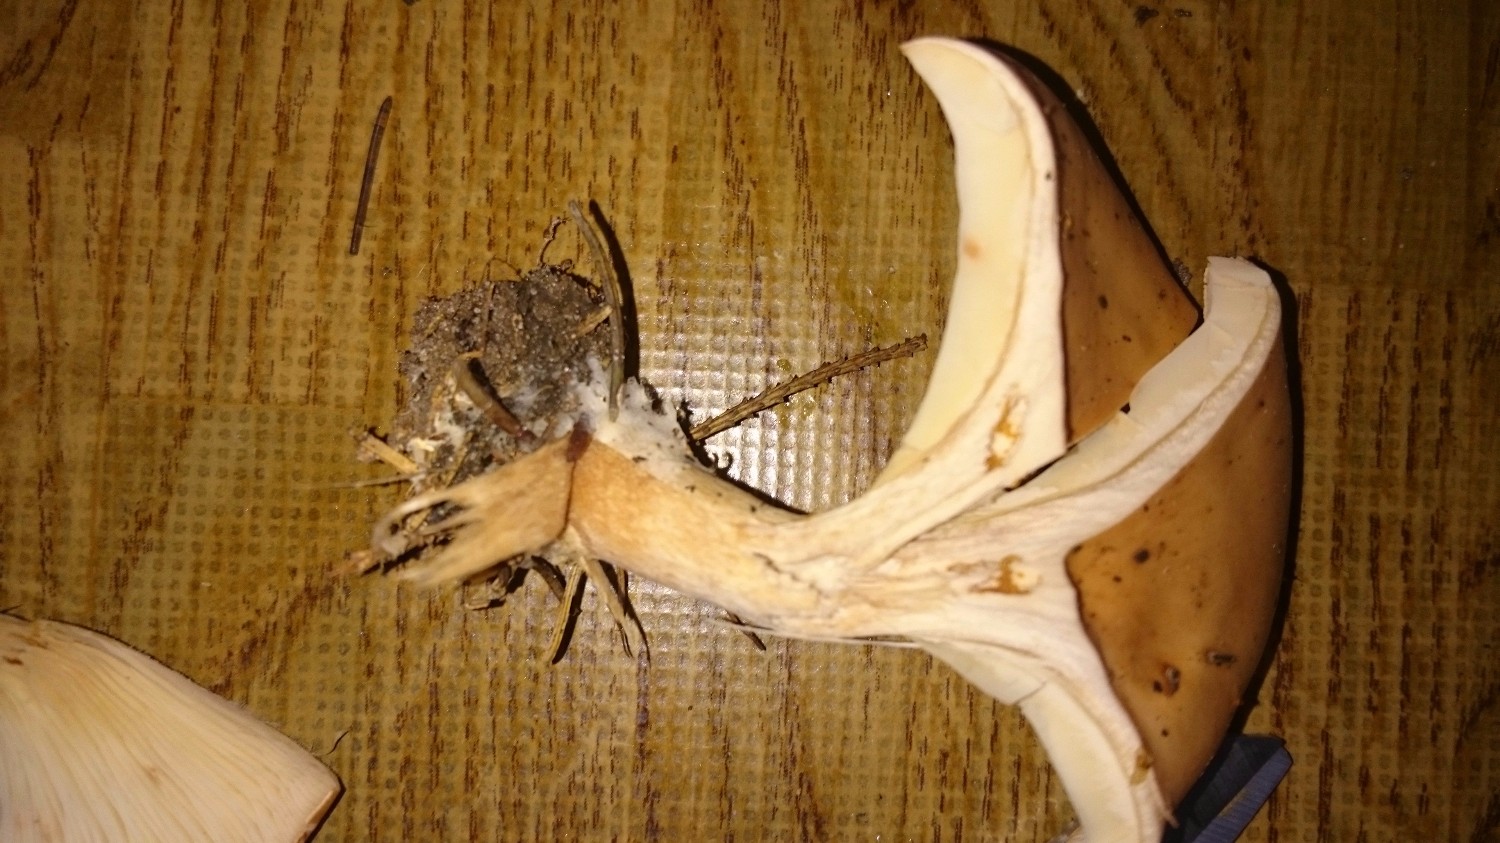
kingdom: Fungi
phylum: Basidiomycota
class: Agaricomycetes
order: Agaricales
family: Tricholomataceae
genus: Paralepista
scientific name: Paralepista flaccida
